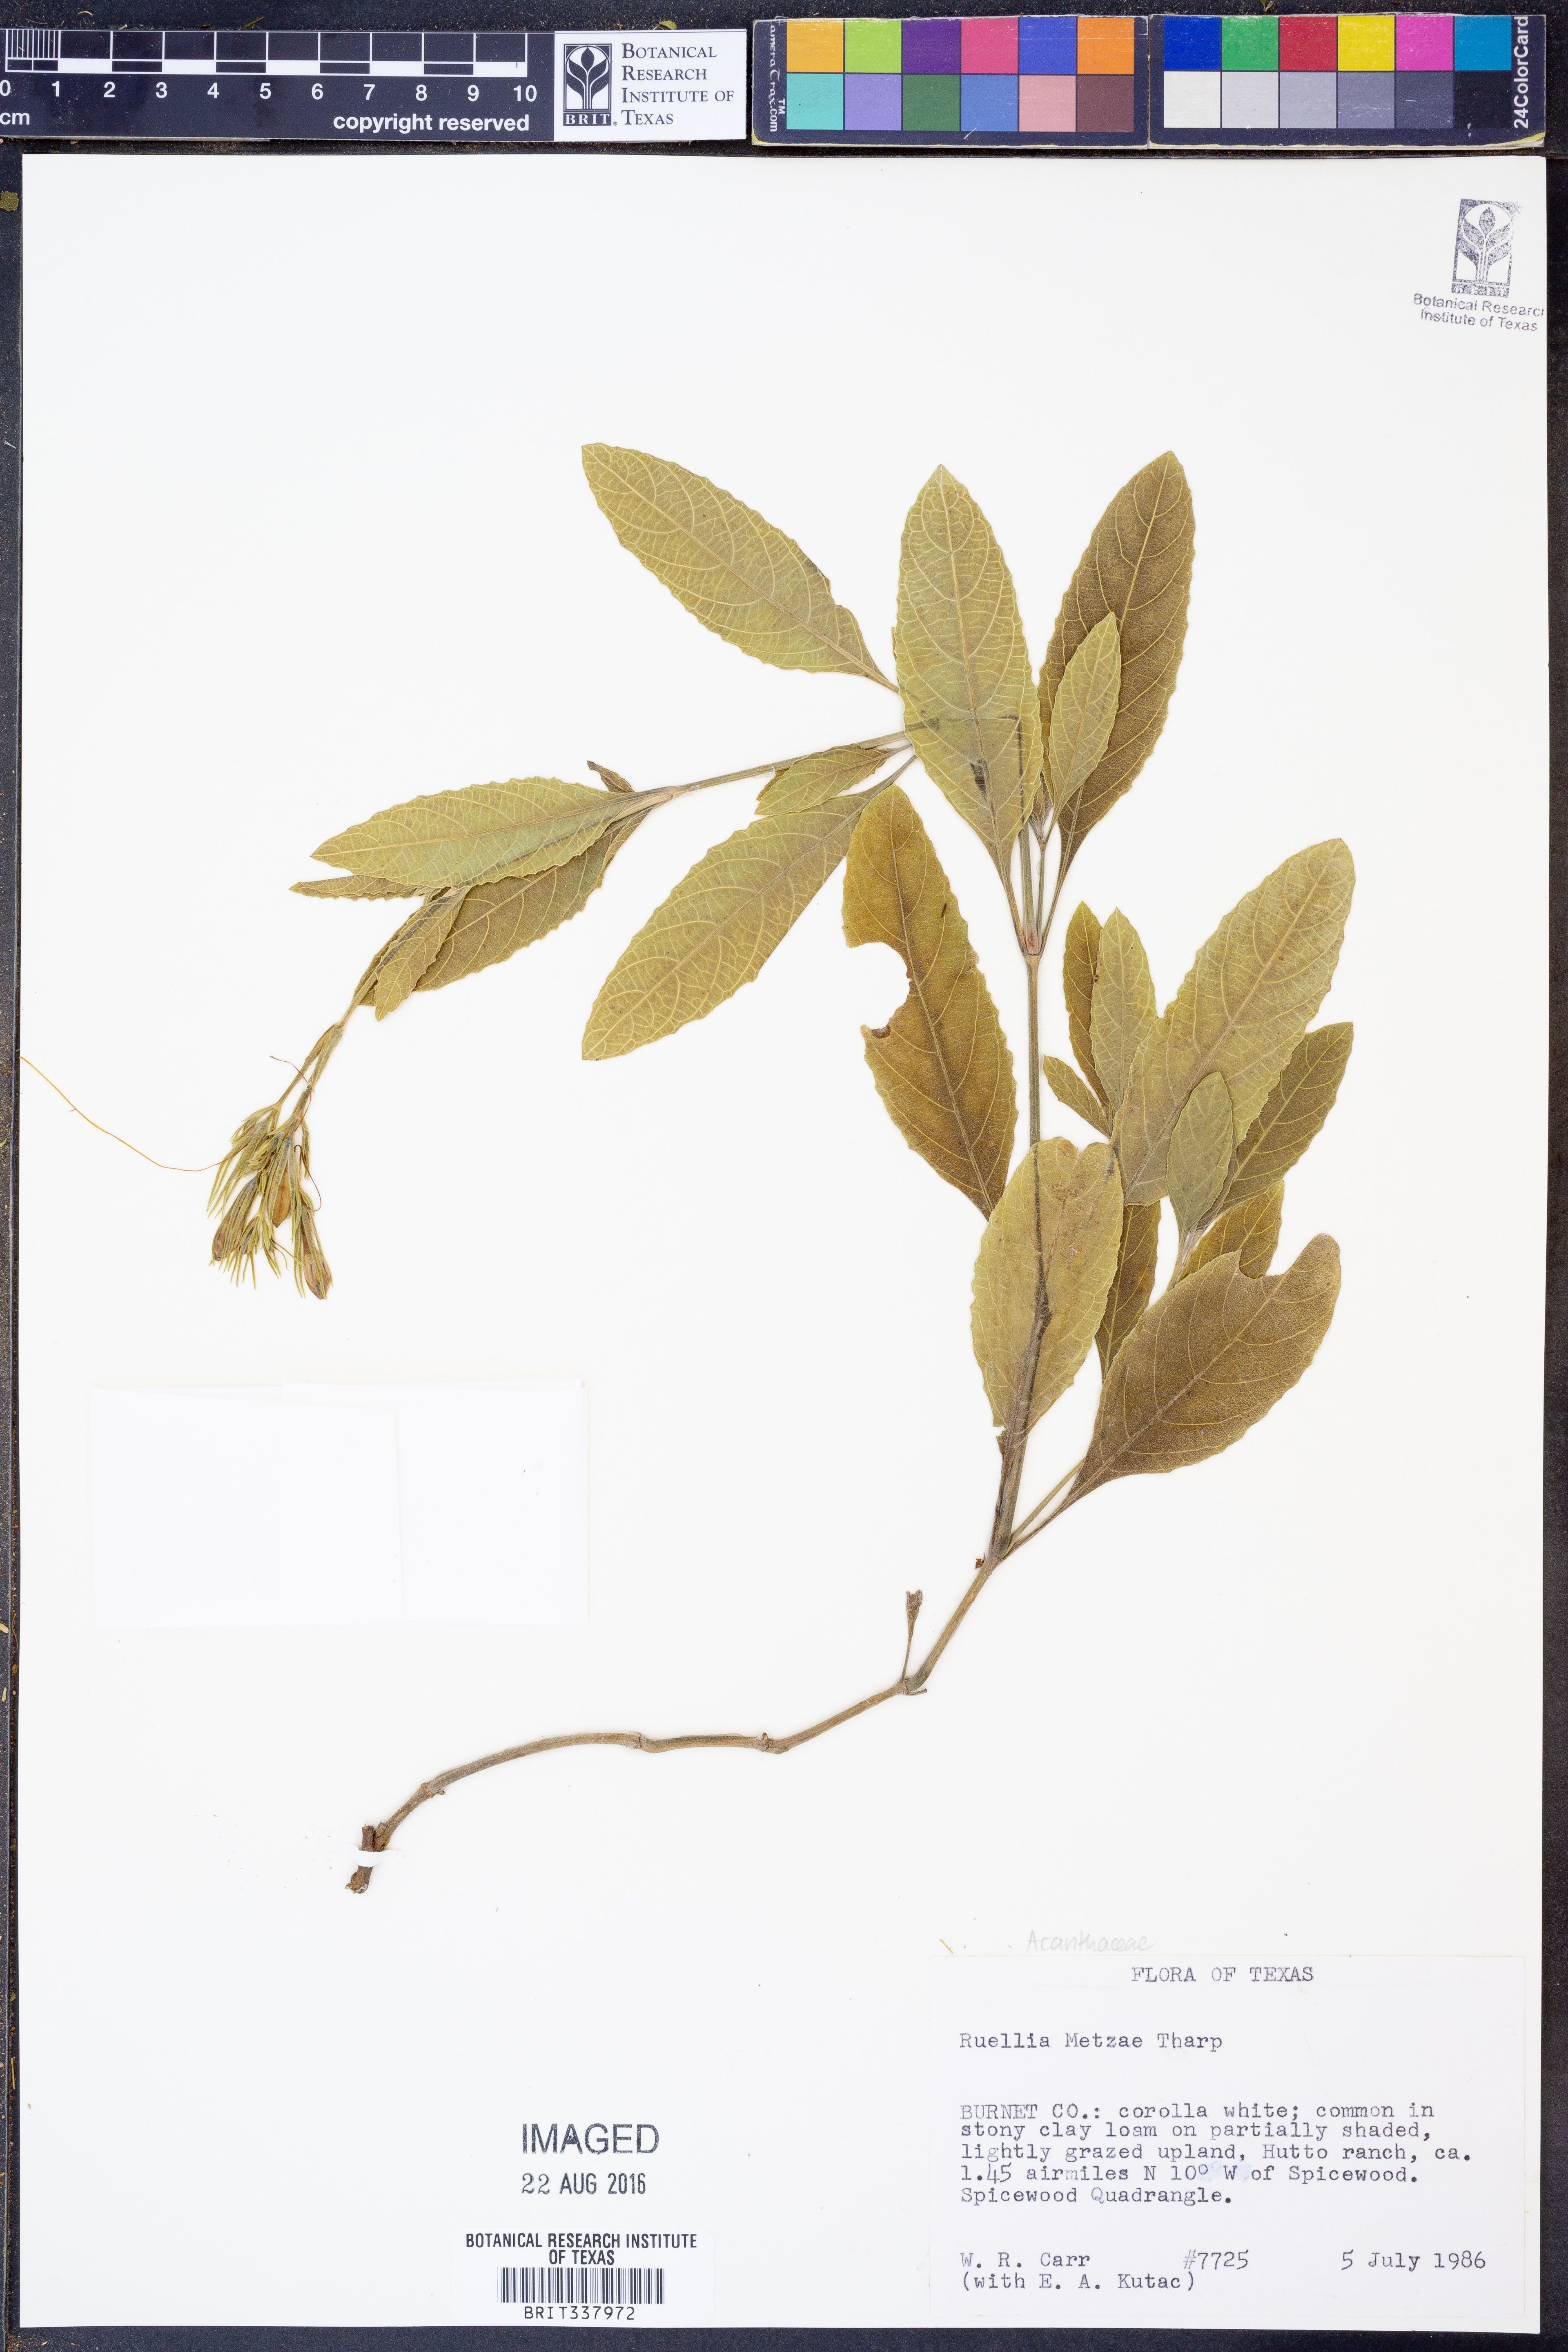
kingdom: Plantae
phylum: Tracheophyta
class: Magnoliopsida
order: Lamiales
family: Acanthaceae
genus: Ruellia
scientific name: Ruellia metzae
